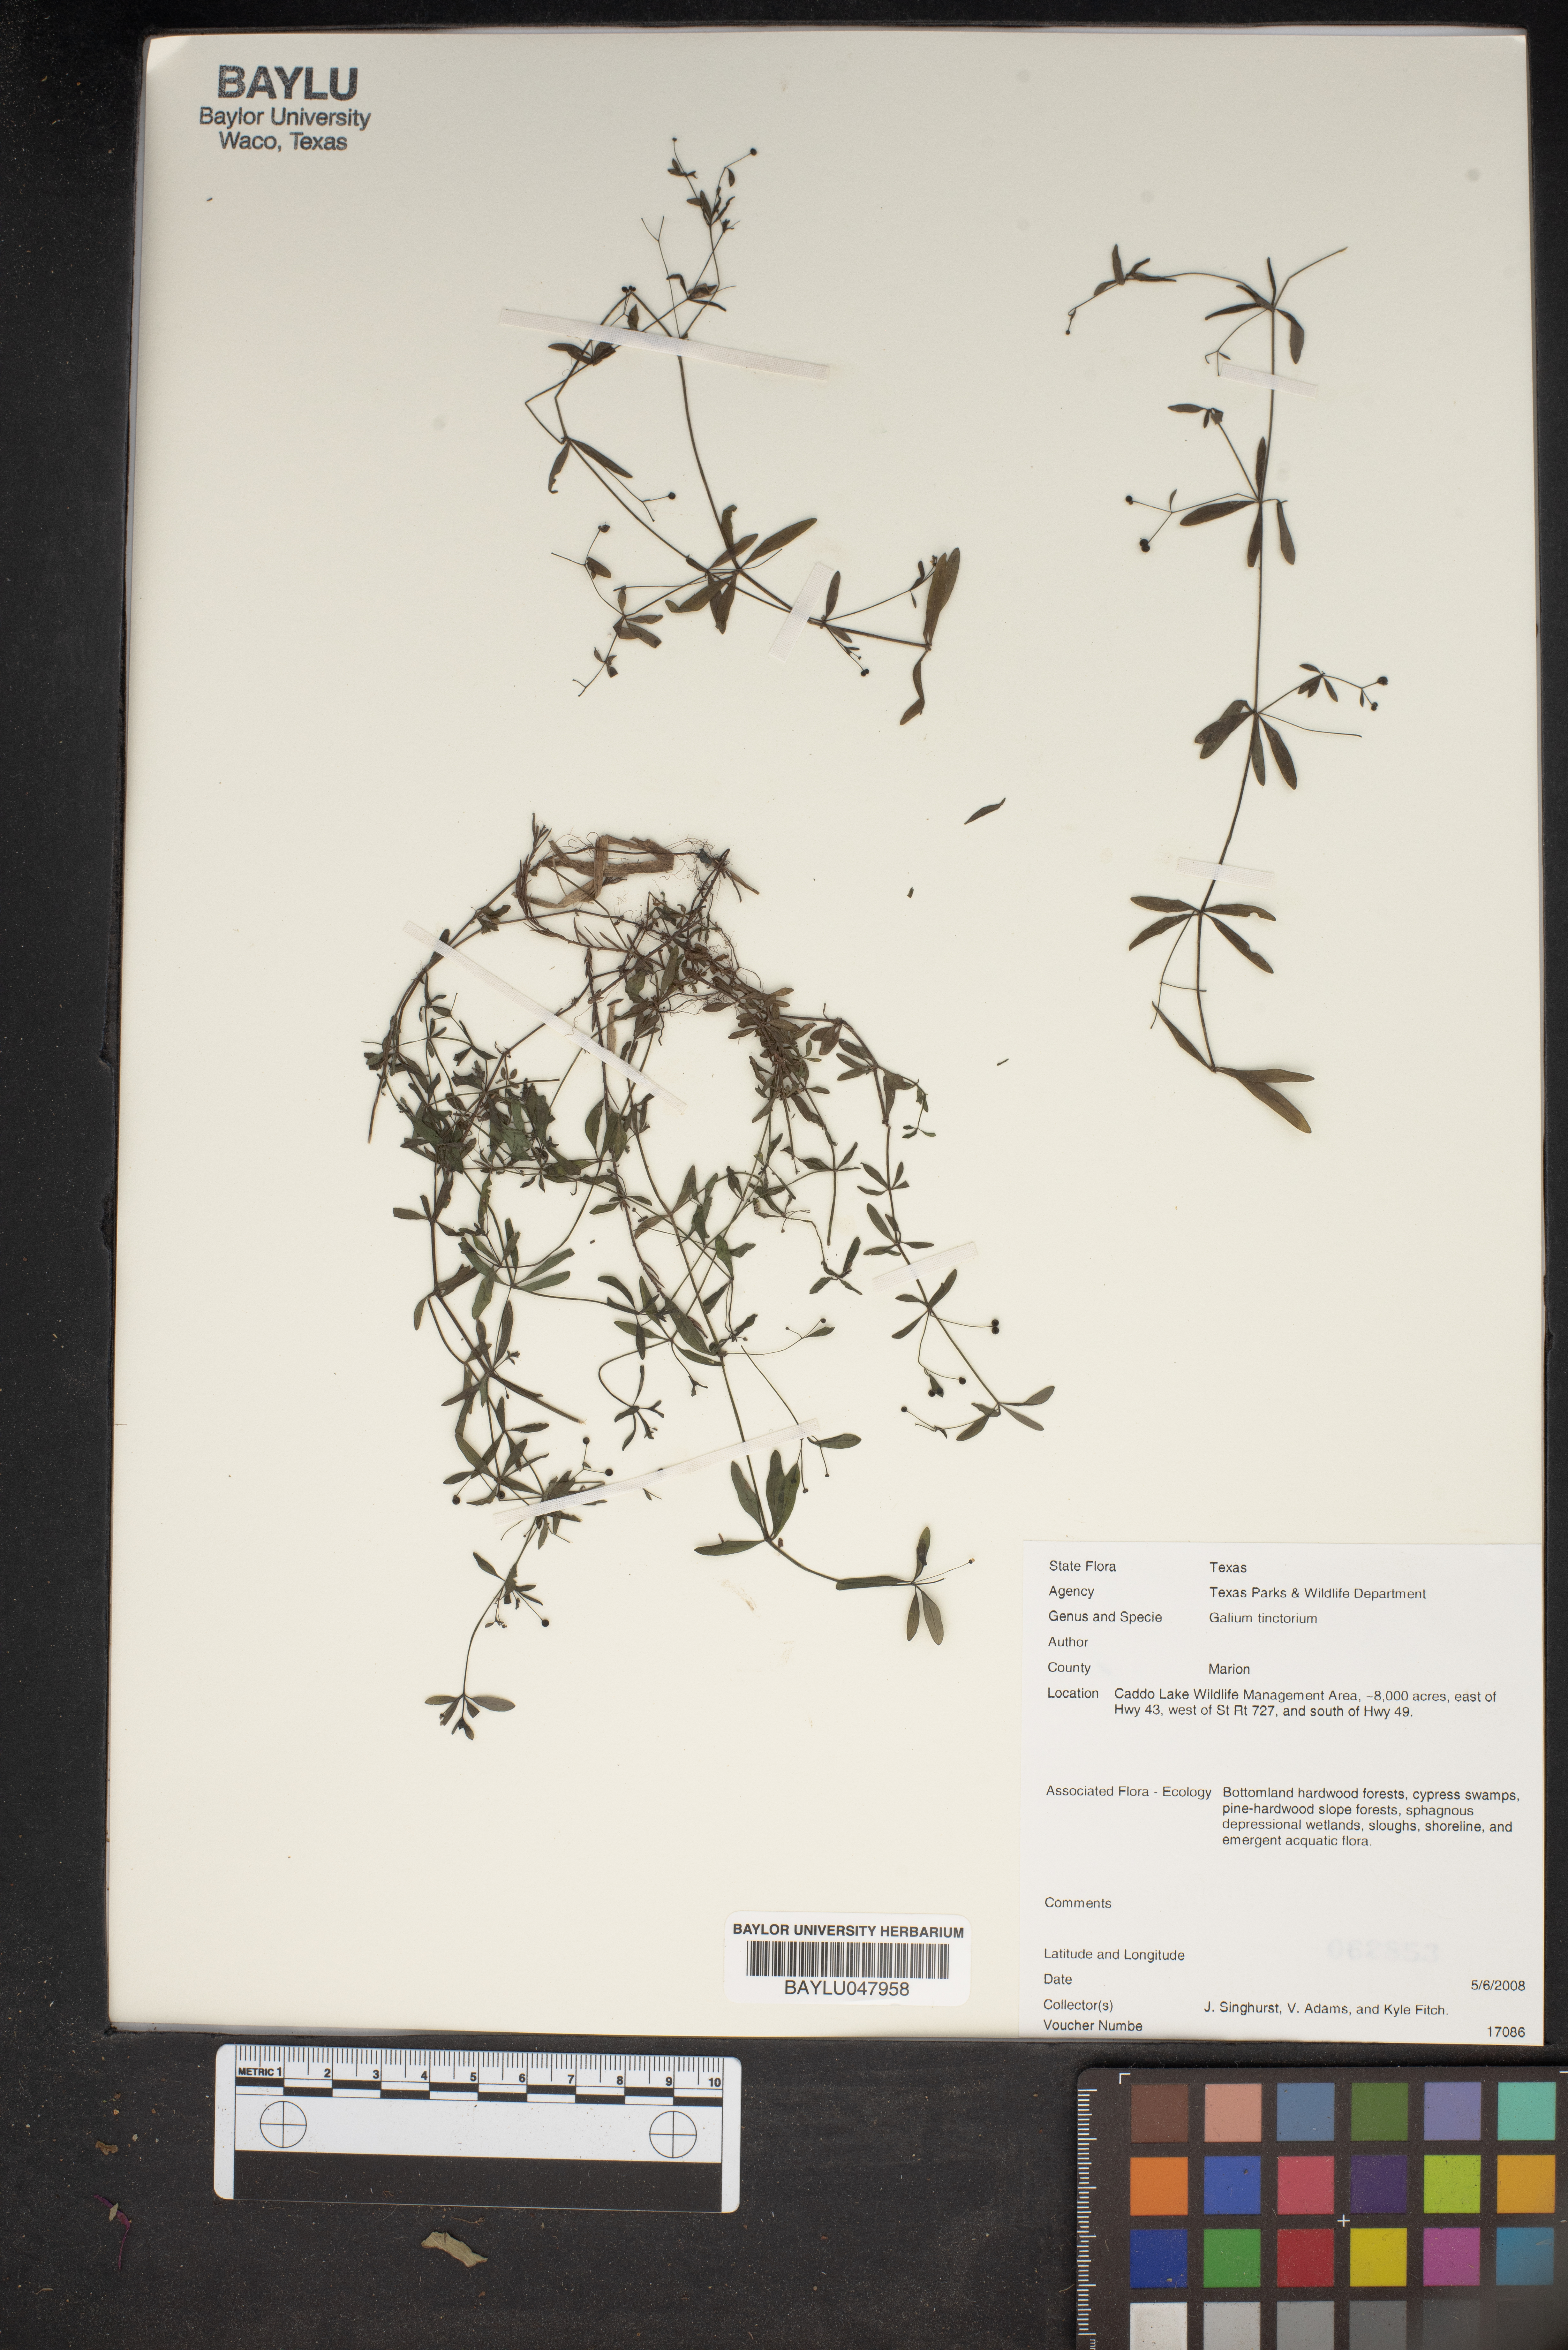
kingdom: Plantae
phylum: Tracheophyta
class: Magnoliopsida
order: Gentianales
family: Rubiaceae
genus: Asperula
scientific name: Asperula tinctoria
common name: Dyer's woodruff
